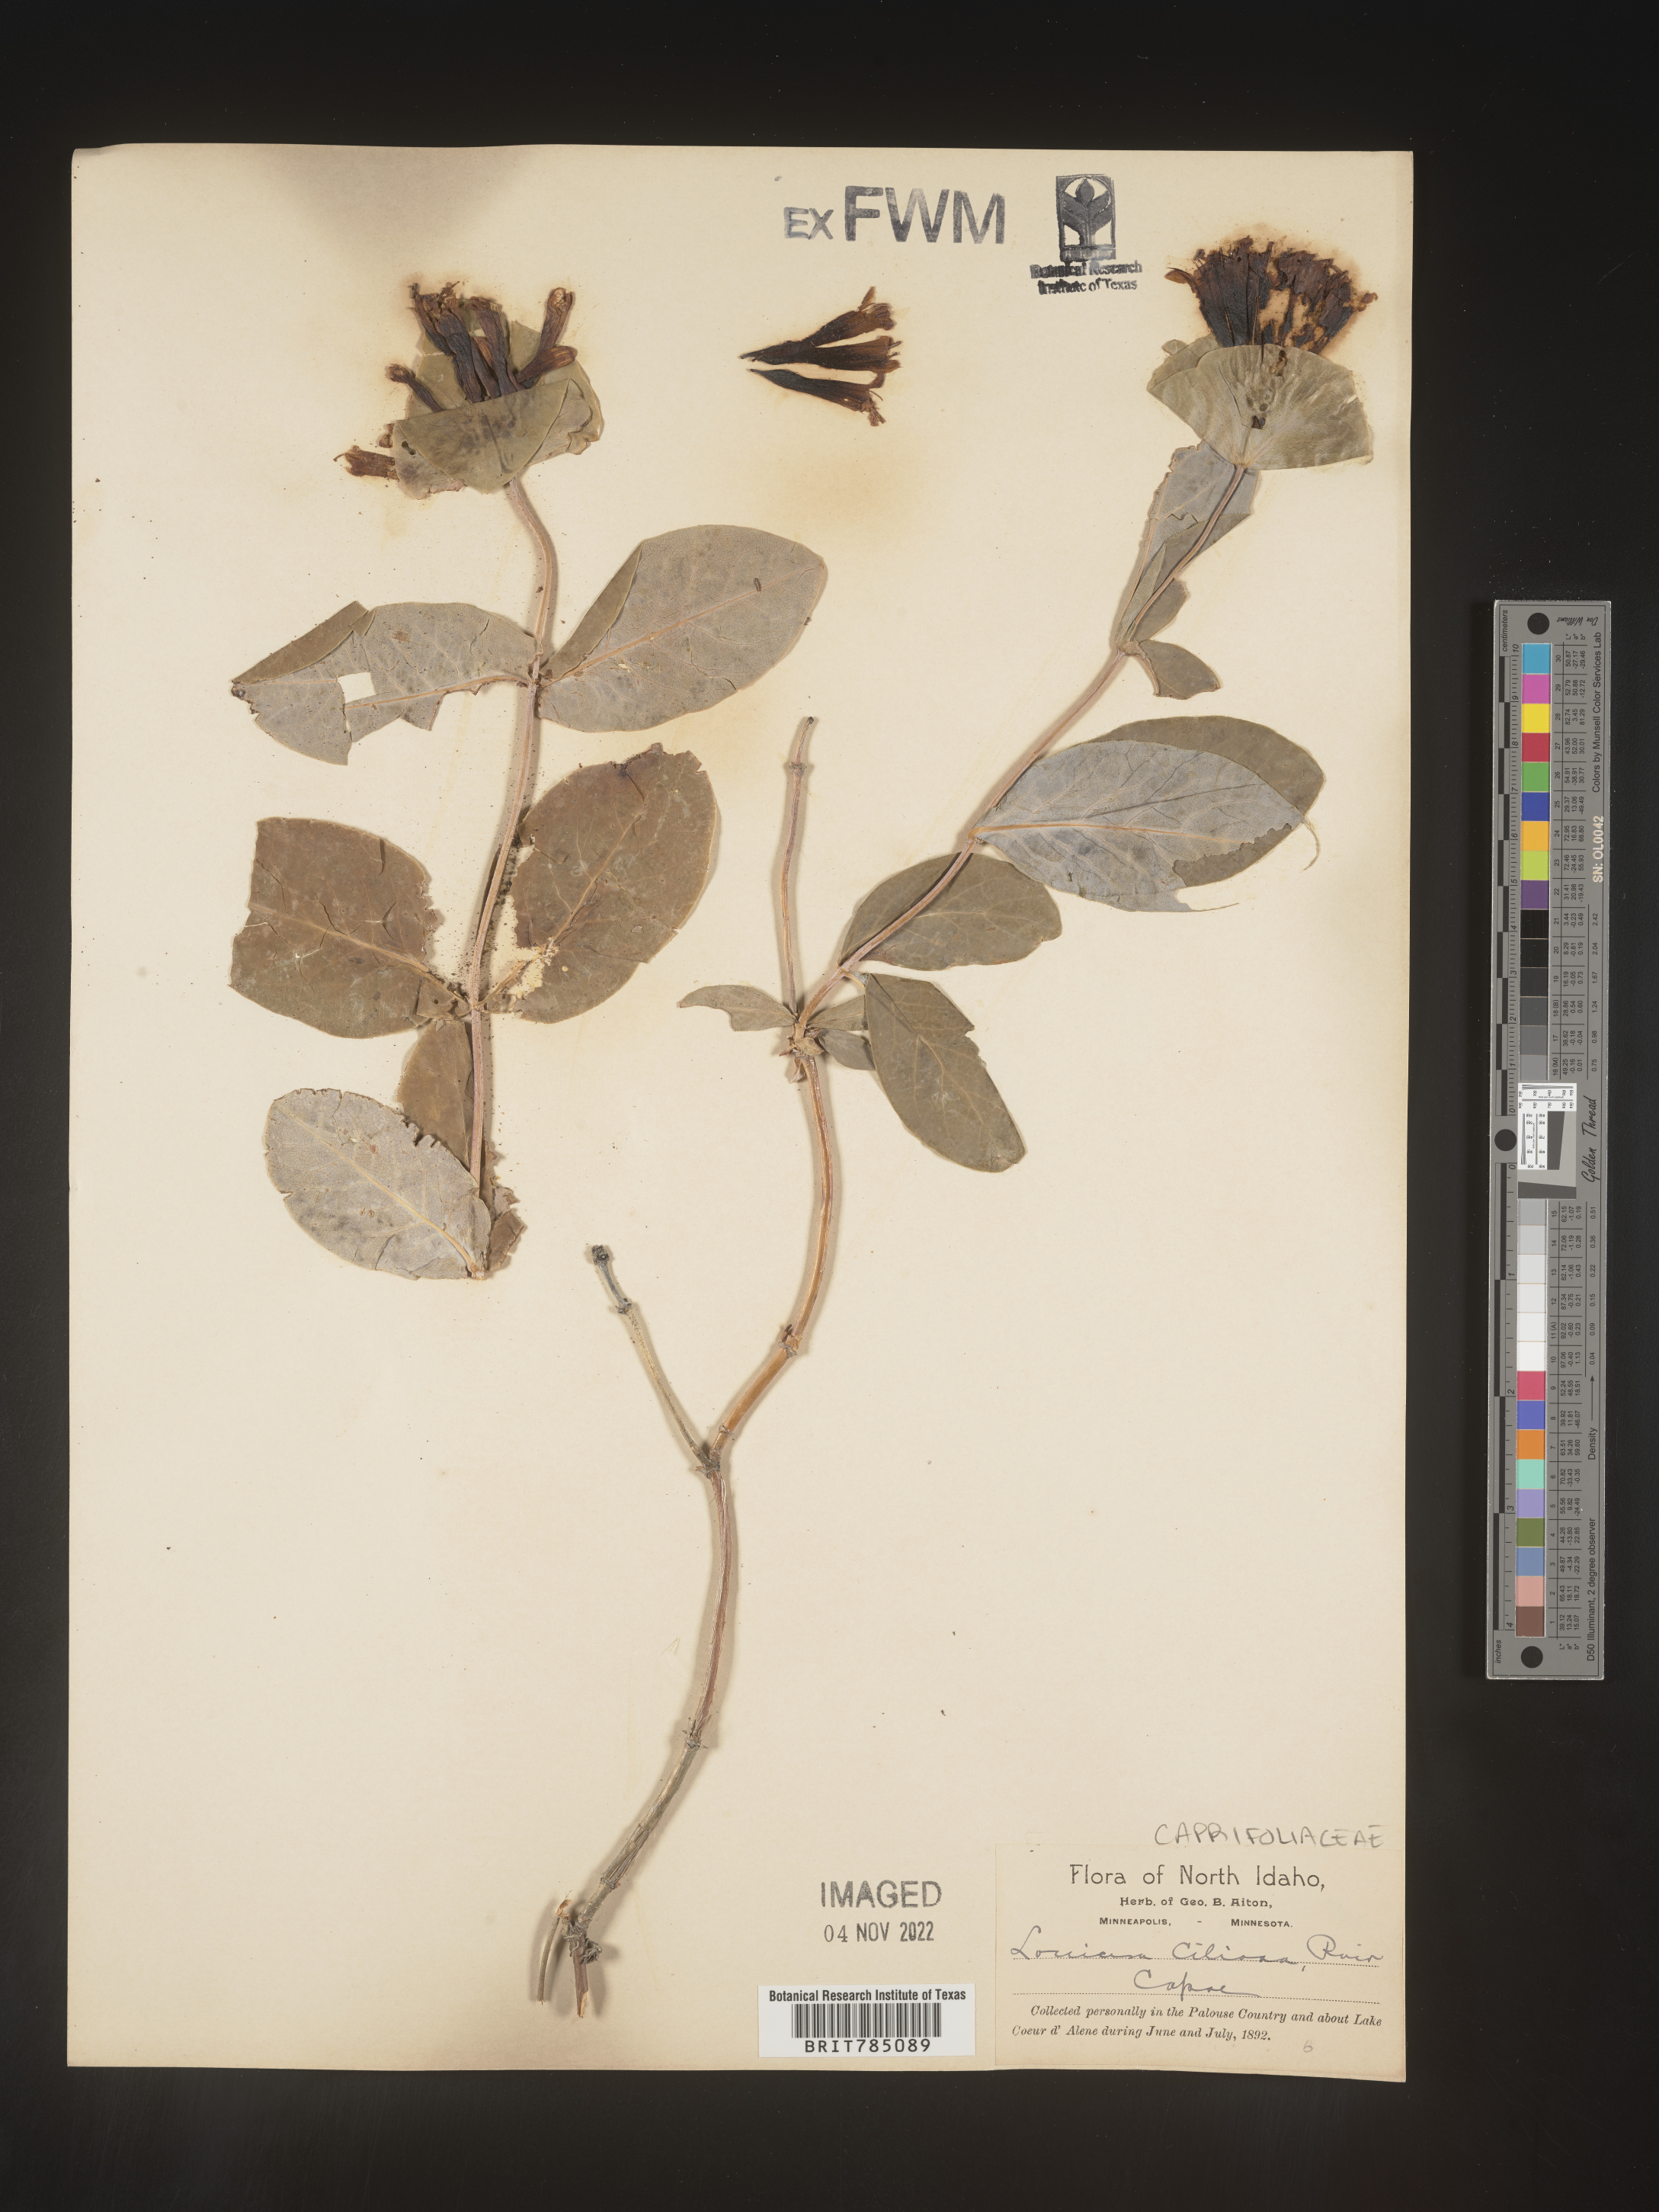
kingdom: Plantae
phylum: Tracheophyta
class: Magnoliopsida
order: Dipsacales
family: Caprifoliaceae
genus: Lonicera
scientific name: Lonicera
